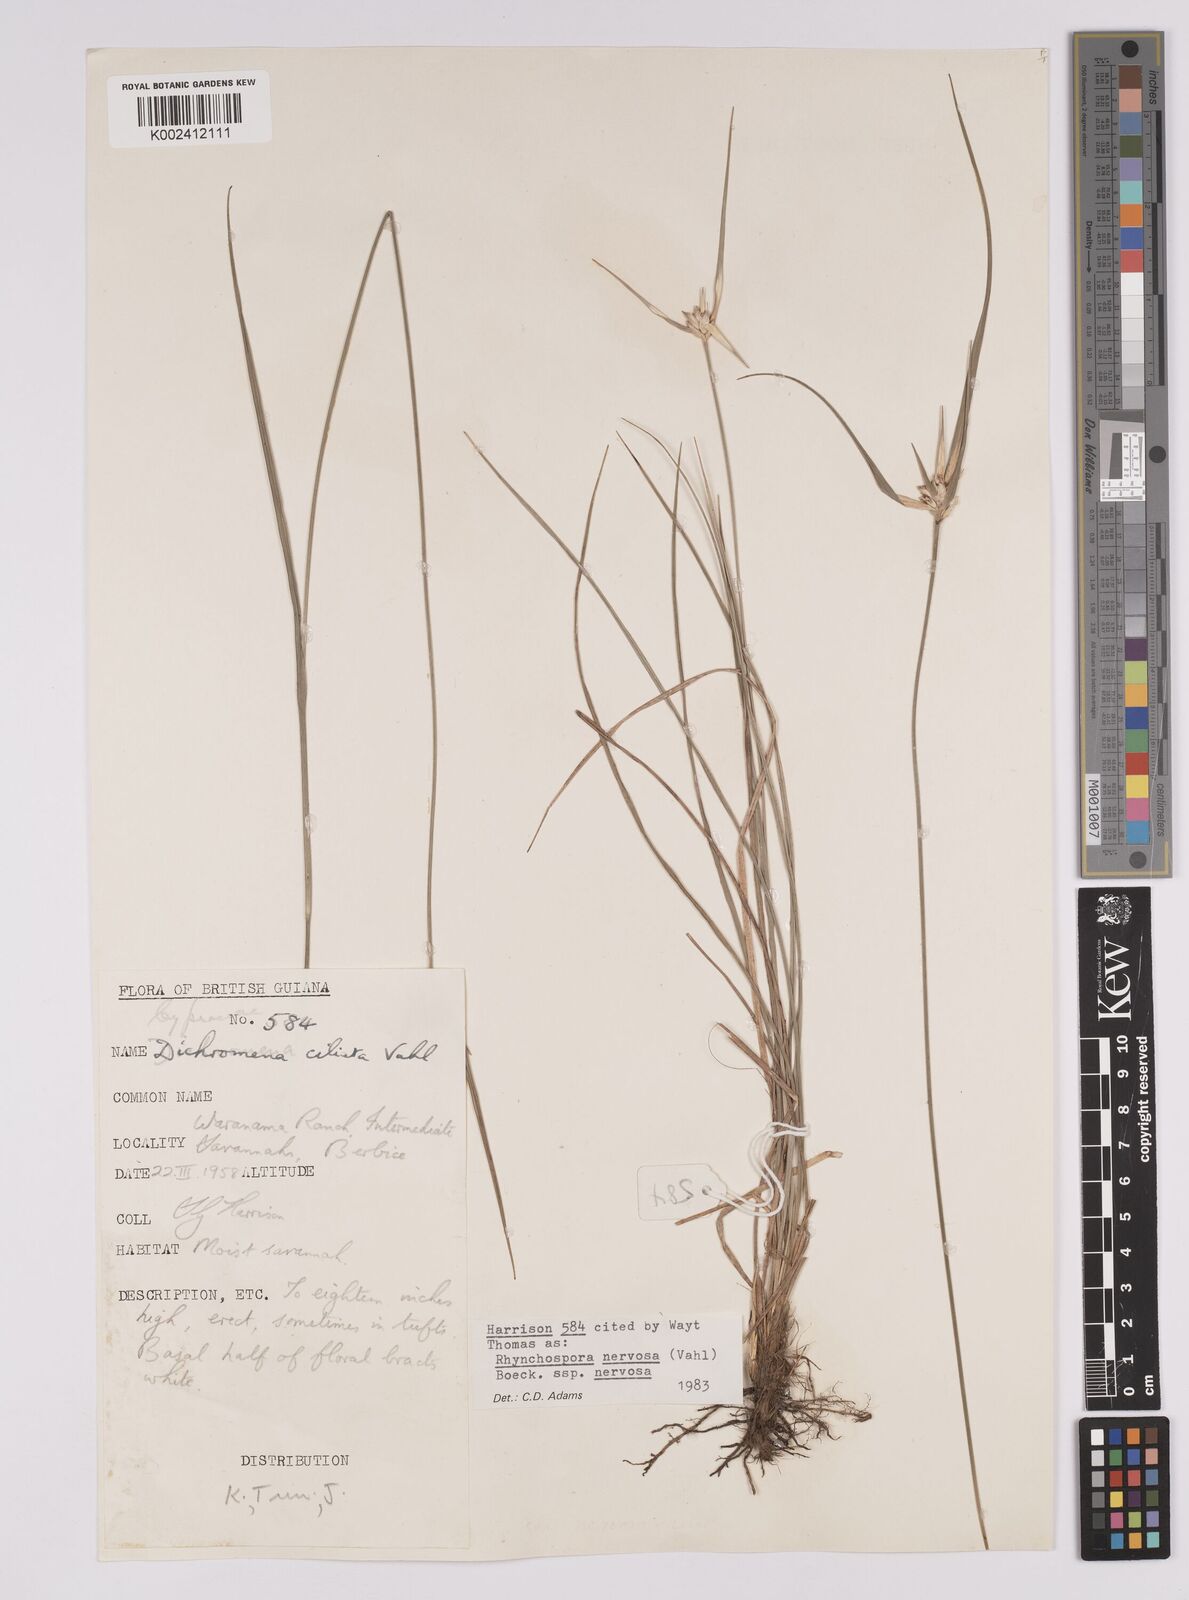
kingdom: Plantae
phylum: Tracheophyta
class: Liliopsida
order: Poales
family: Cyperaceae
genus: Rhynchospora
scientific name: Rhynchospora nervosa
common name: Star sedge
